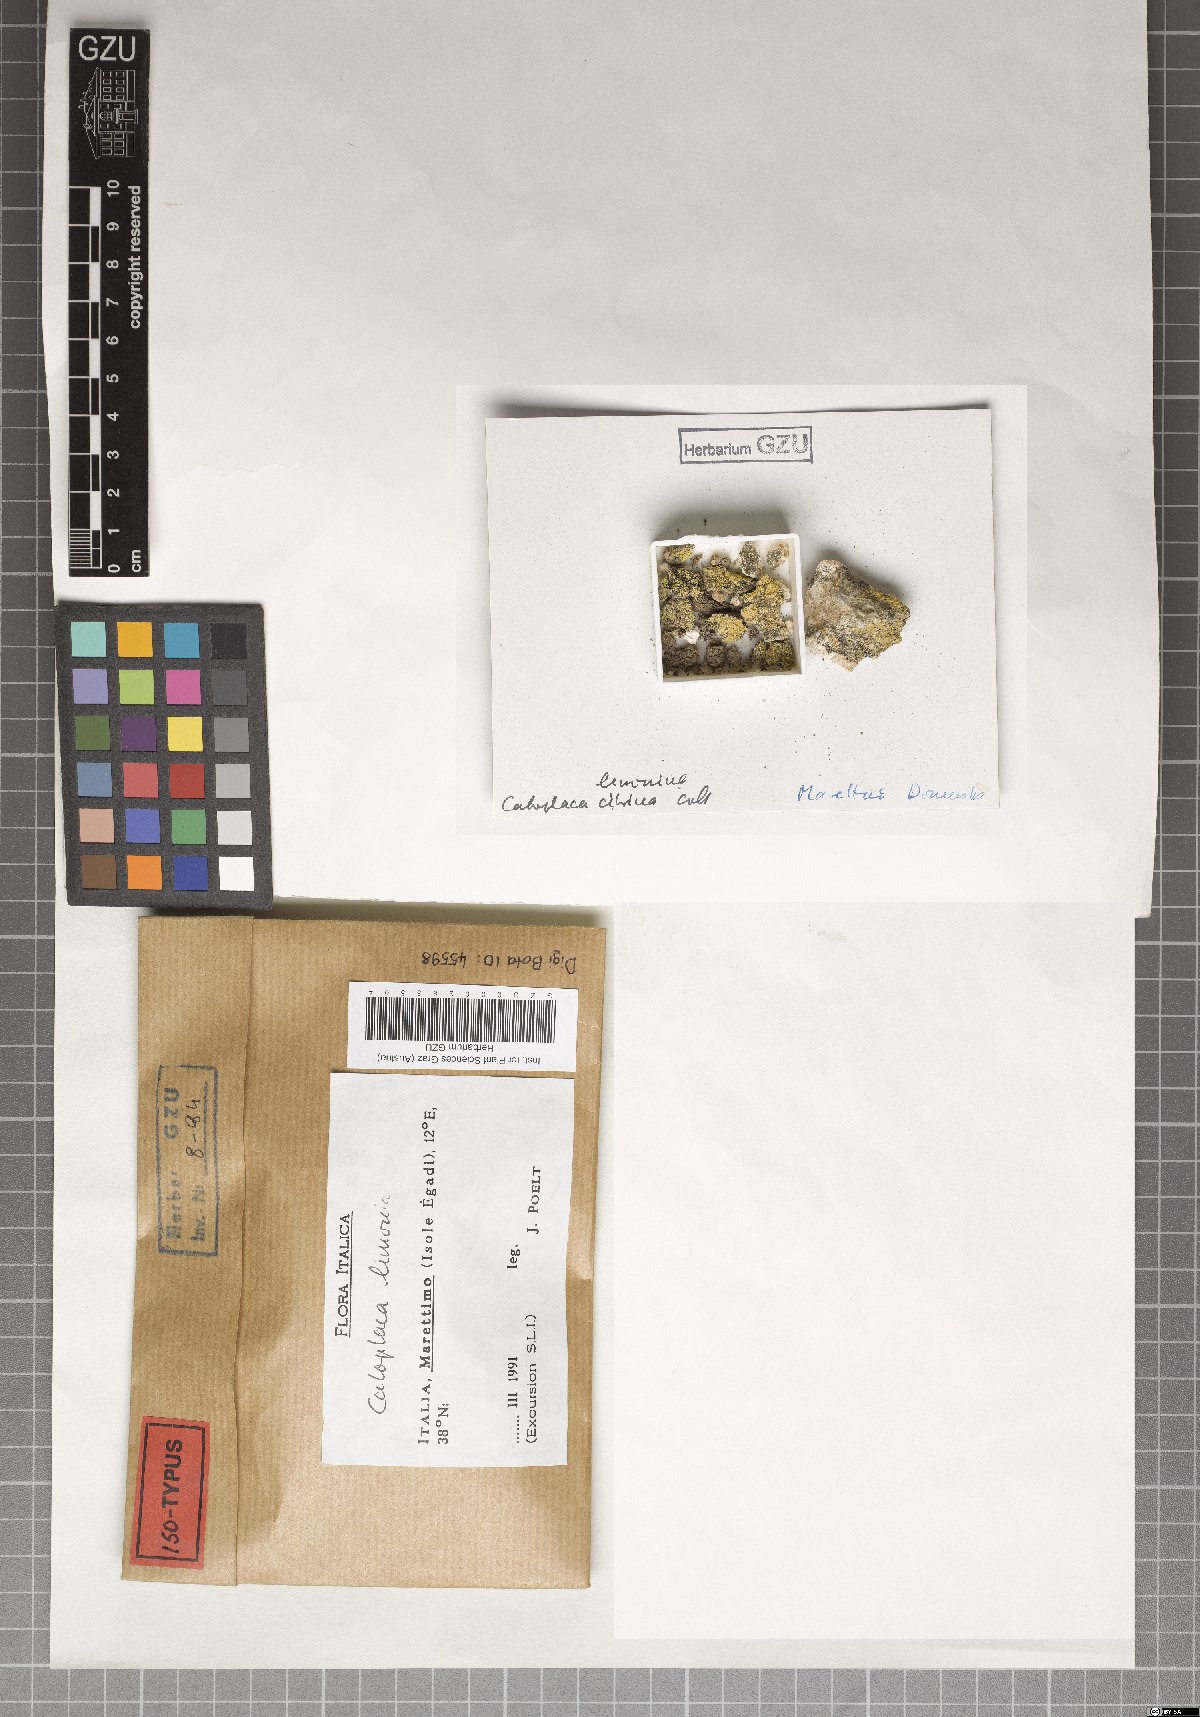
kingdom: Fungi
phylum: Ascomycota
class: Lecanoromycetes
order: Teloschistales
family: Teloschistaceae
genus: Flavoplaca
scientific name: Flavoplaca limonia
